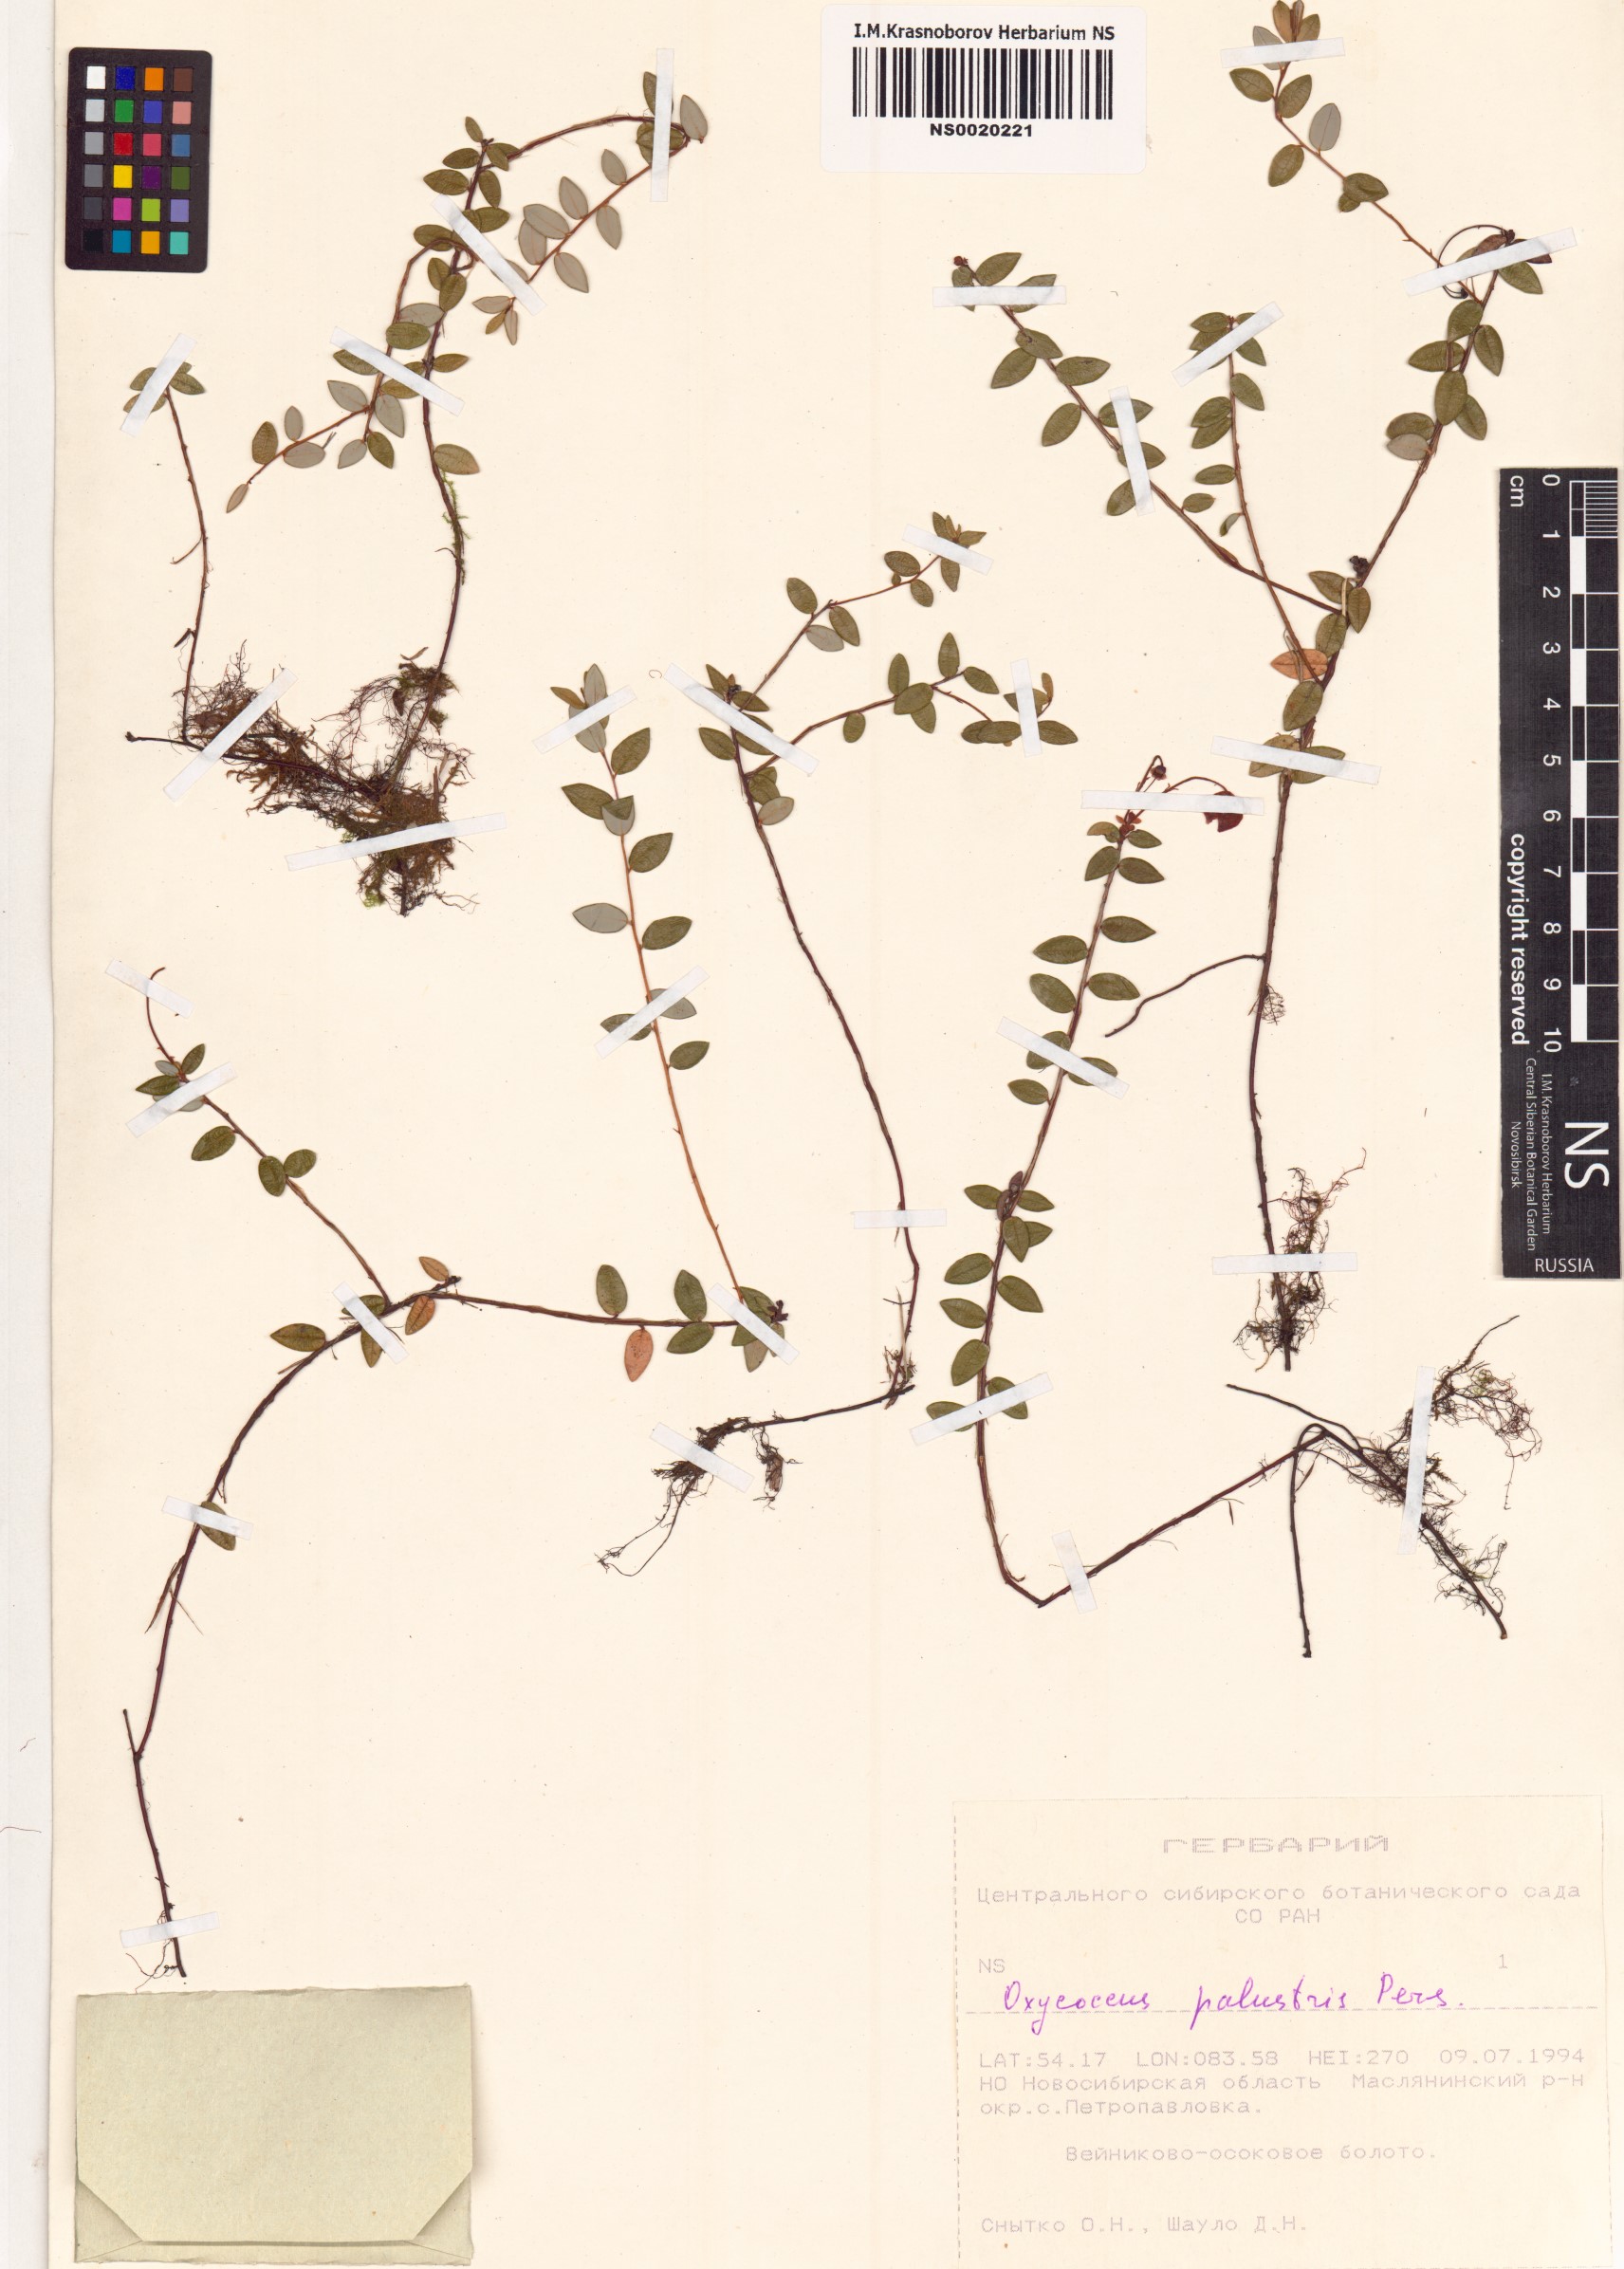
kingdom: Plantae
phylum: Tracheophyta
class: Magnoliopsida
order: Ericales
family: Ericaceae
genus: Vaccinium
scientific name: Vaccinium oxycoccos
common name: Cranberry
